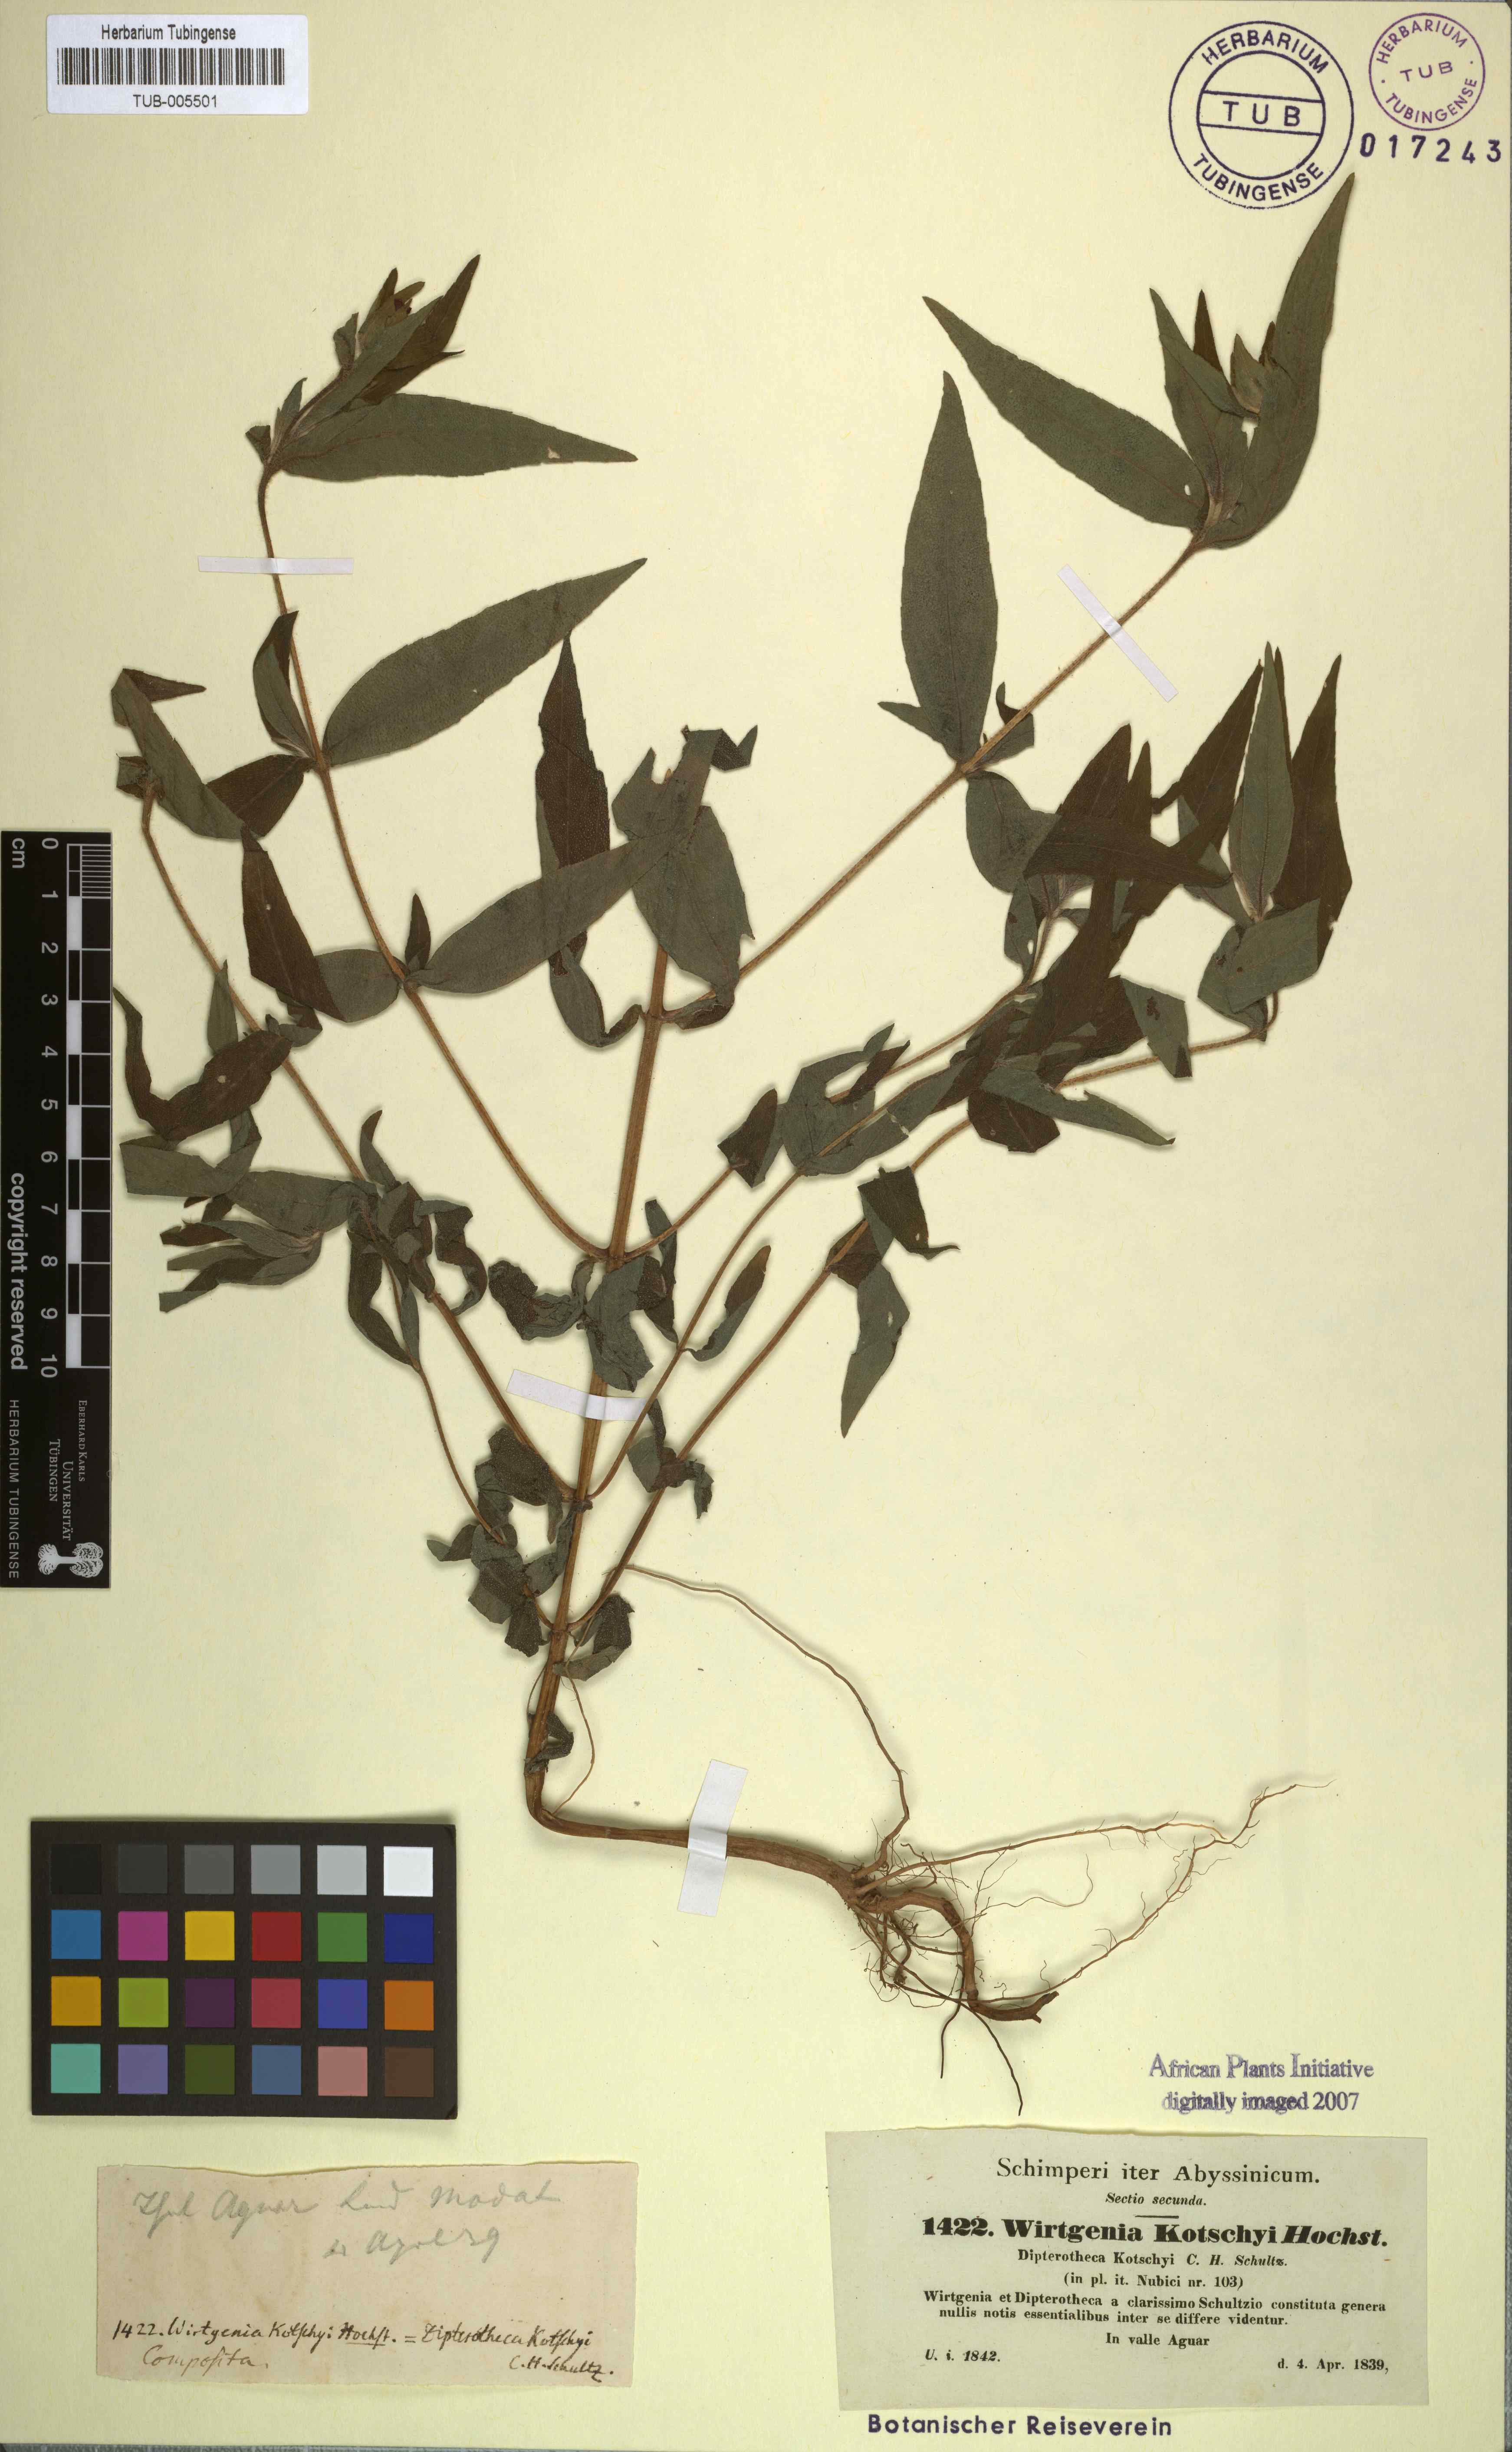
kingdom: Plantae
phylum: Tracheophyta
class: Magnoliopsida
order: Asterales
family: Asteraceae
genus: Aspilia
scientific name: Aspilia kotschyi
